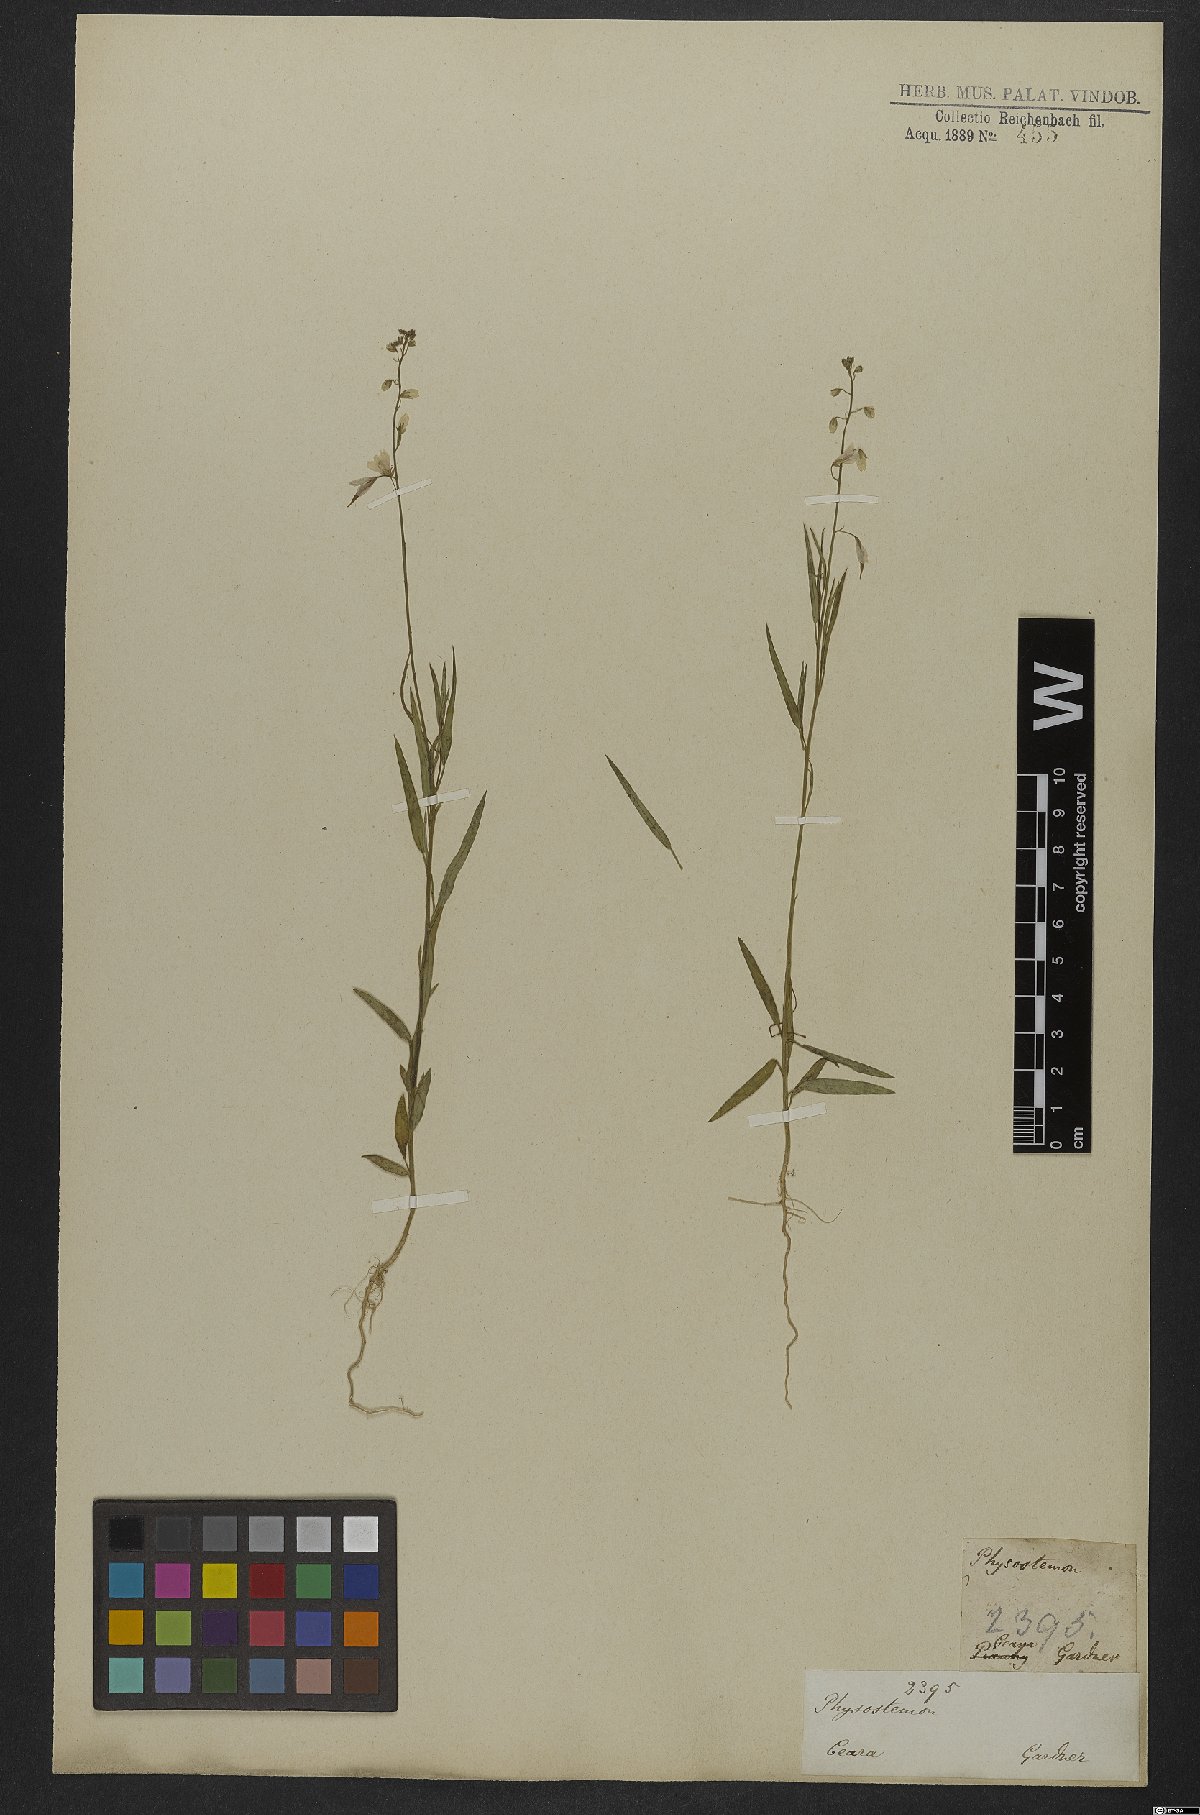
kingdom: Plantae
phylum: Tracheophyta
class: Magnoliopsida
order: Brassicales
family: Cleomaceae
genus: Physostemon
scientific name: Physostemon lanceolatus
